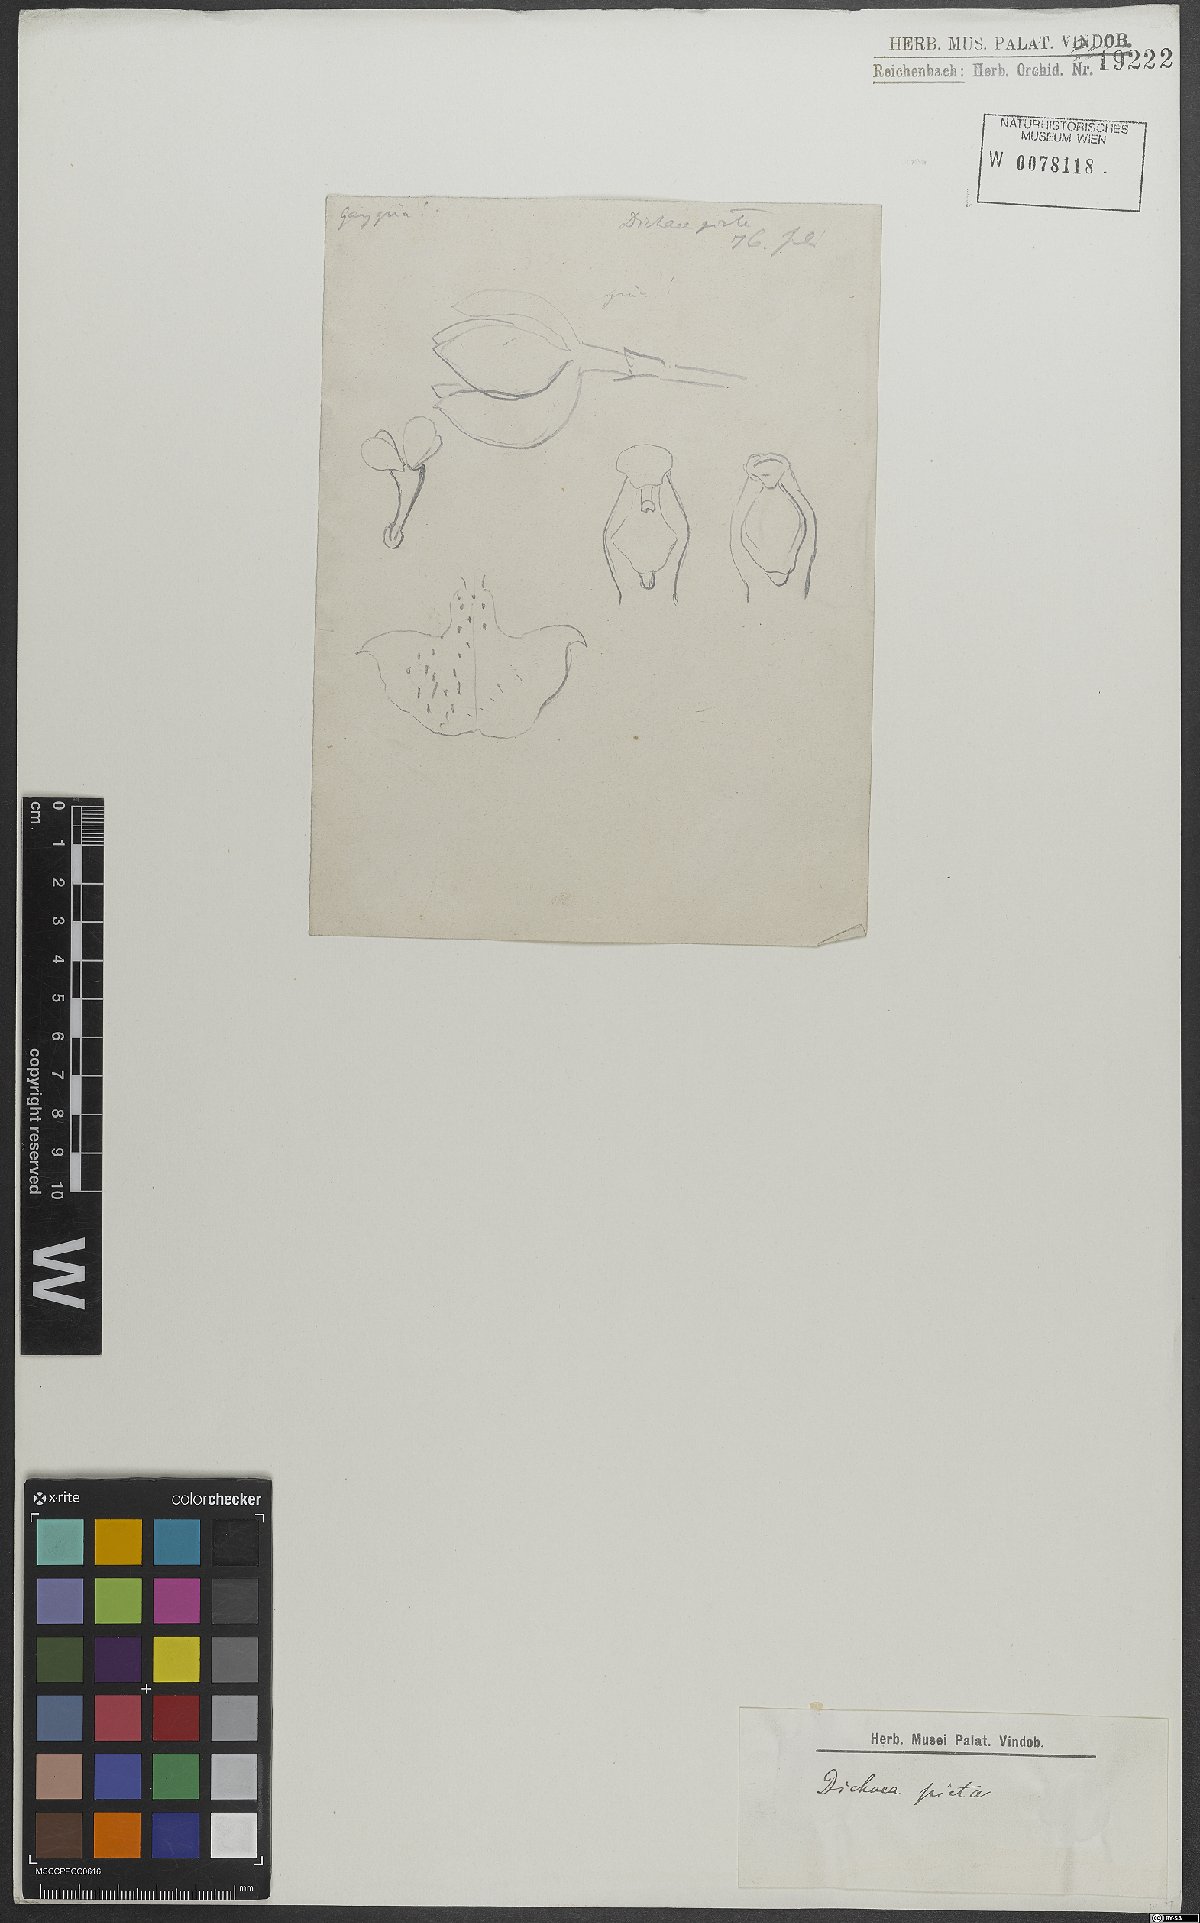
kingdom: Plantae
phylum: Tracheophyta
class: Liliopsida
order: Asparagales
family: Orchidaceae
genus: Dichaea
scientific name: Dichaea picta
